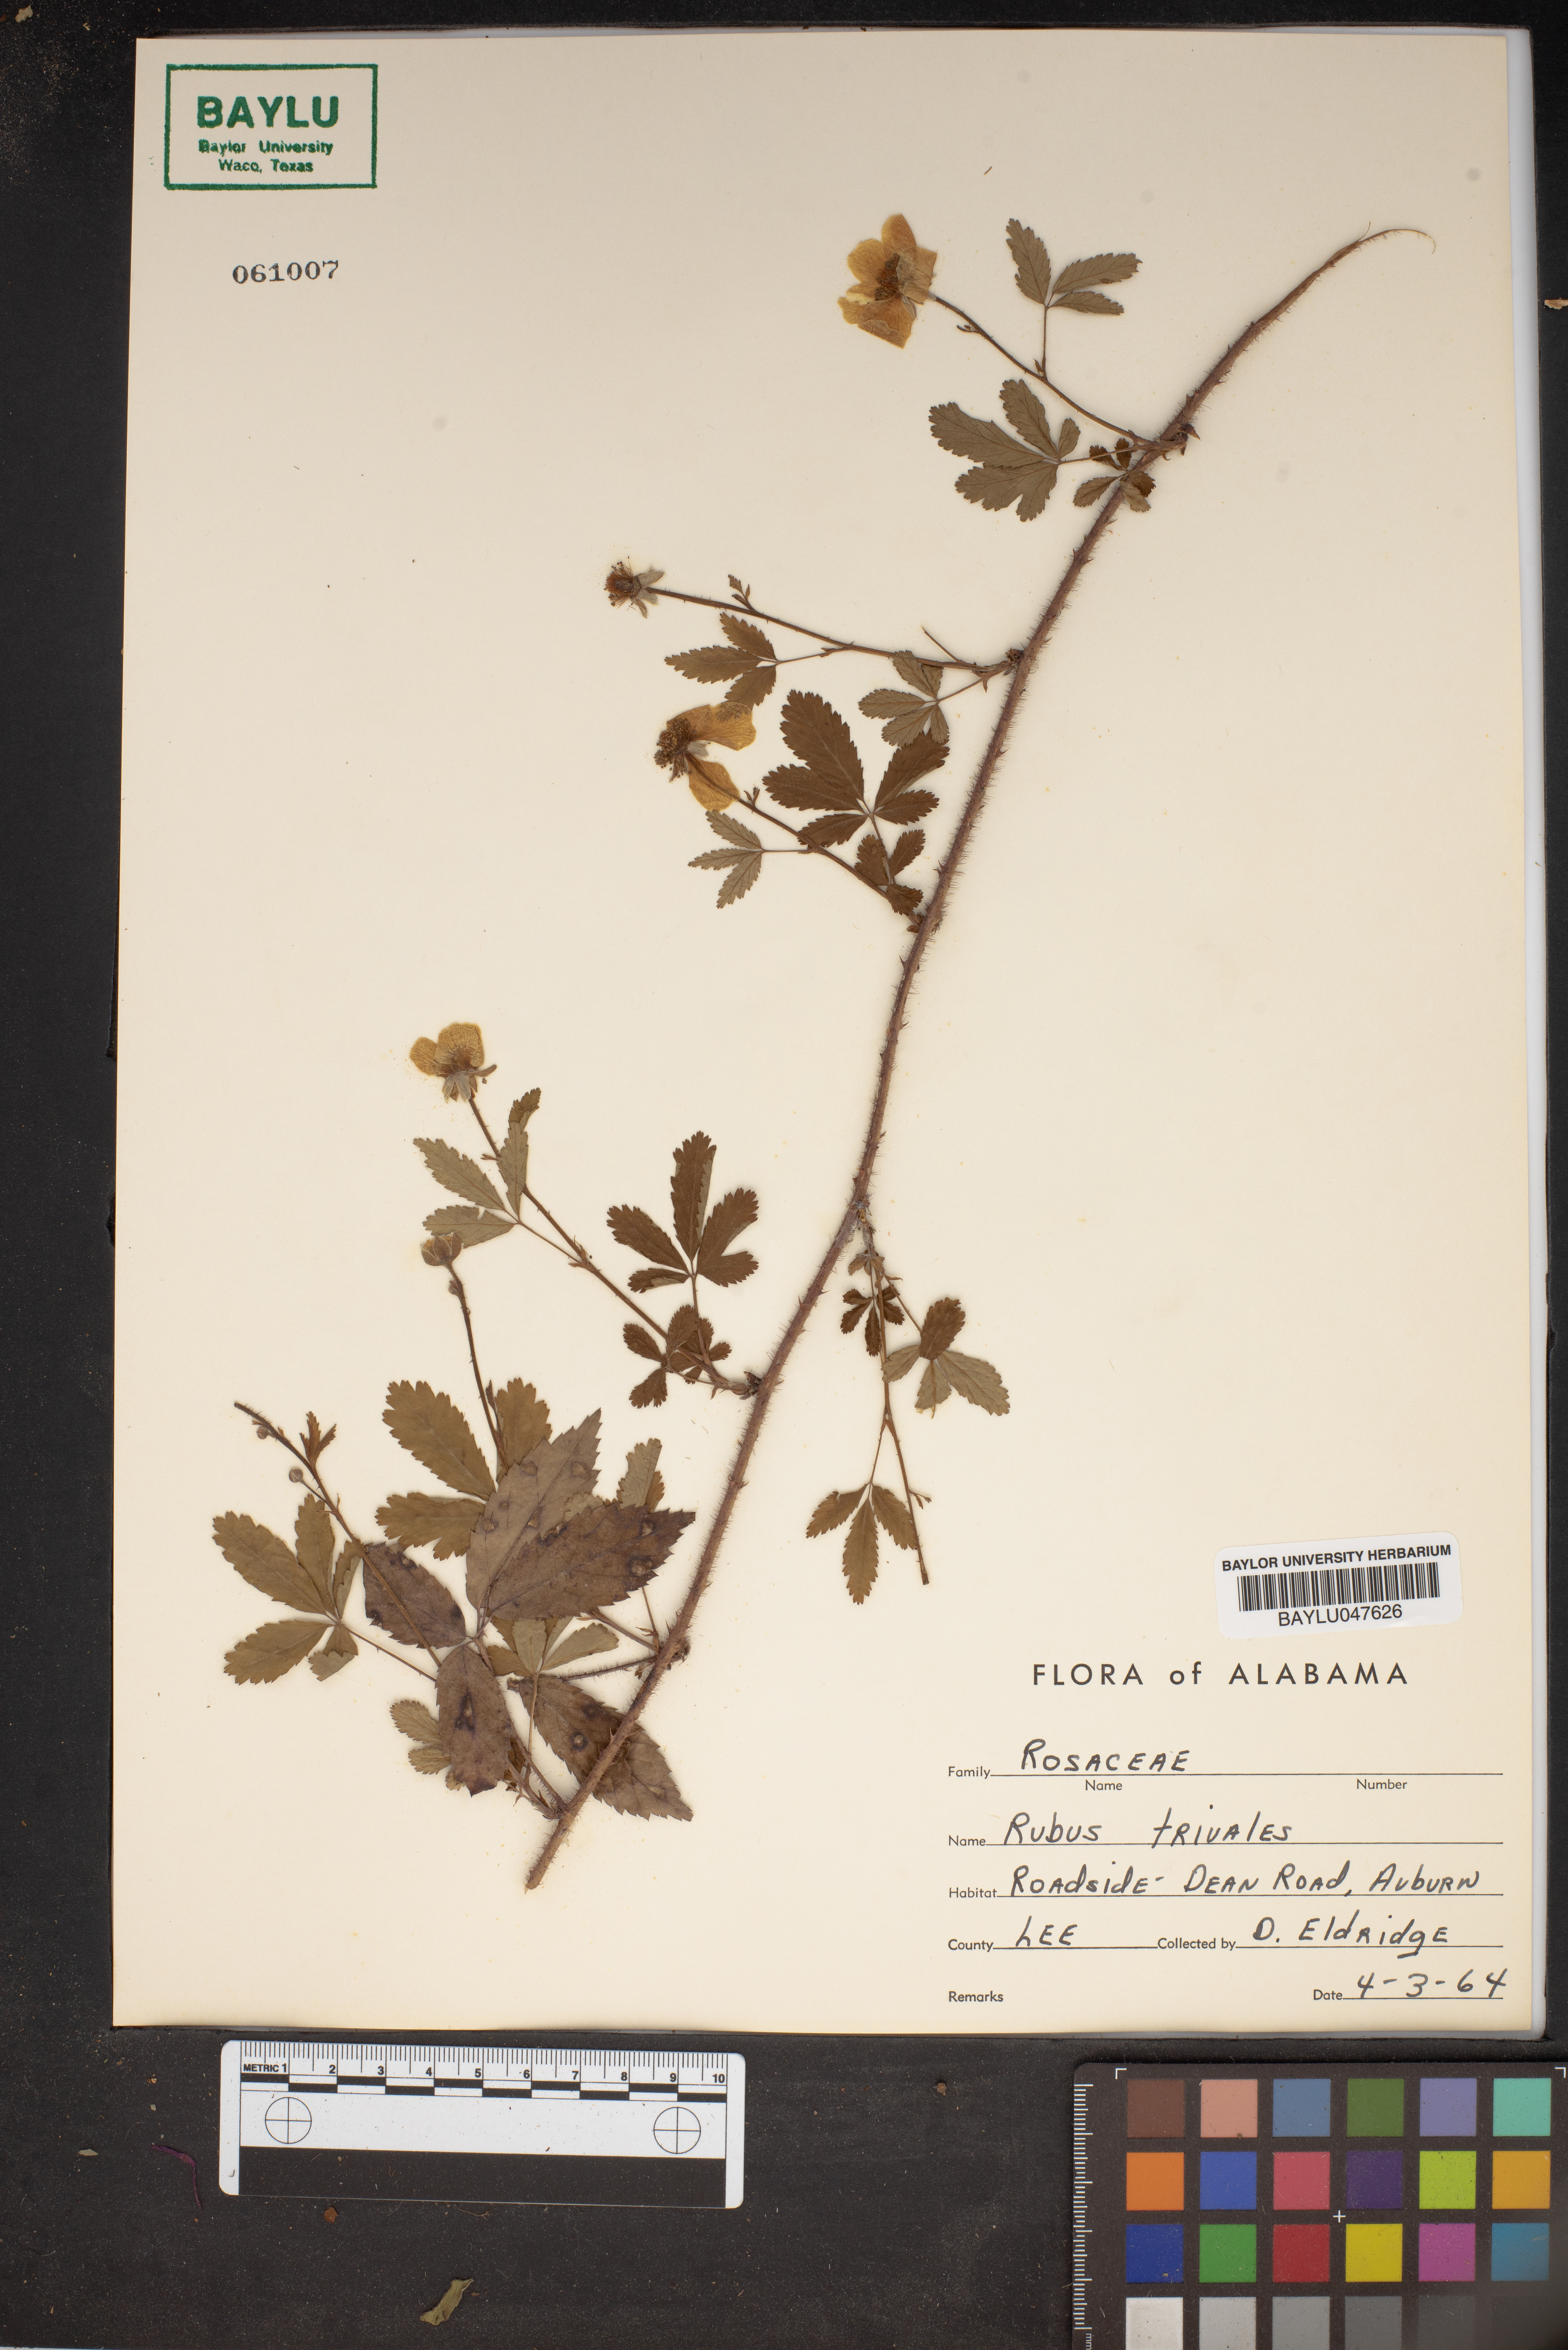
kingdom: Plantae
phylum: Tracheophyta
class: Magnoliopsida
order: Rosales
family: Rosaceae
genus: Rubus
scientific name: Rubus trivialis
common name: Southern dewberry
